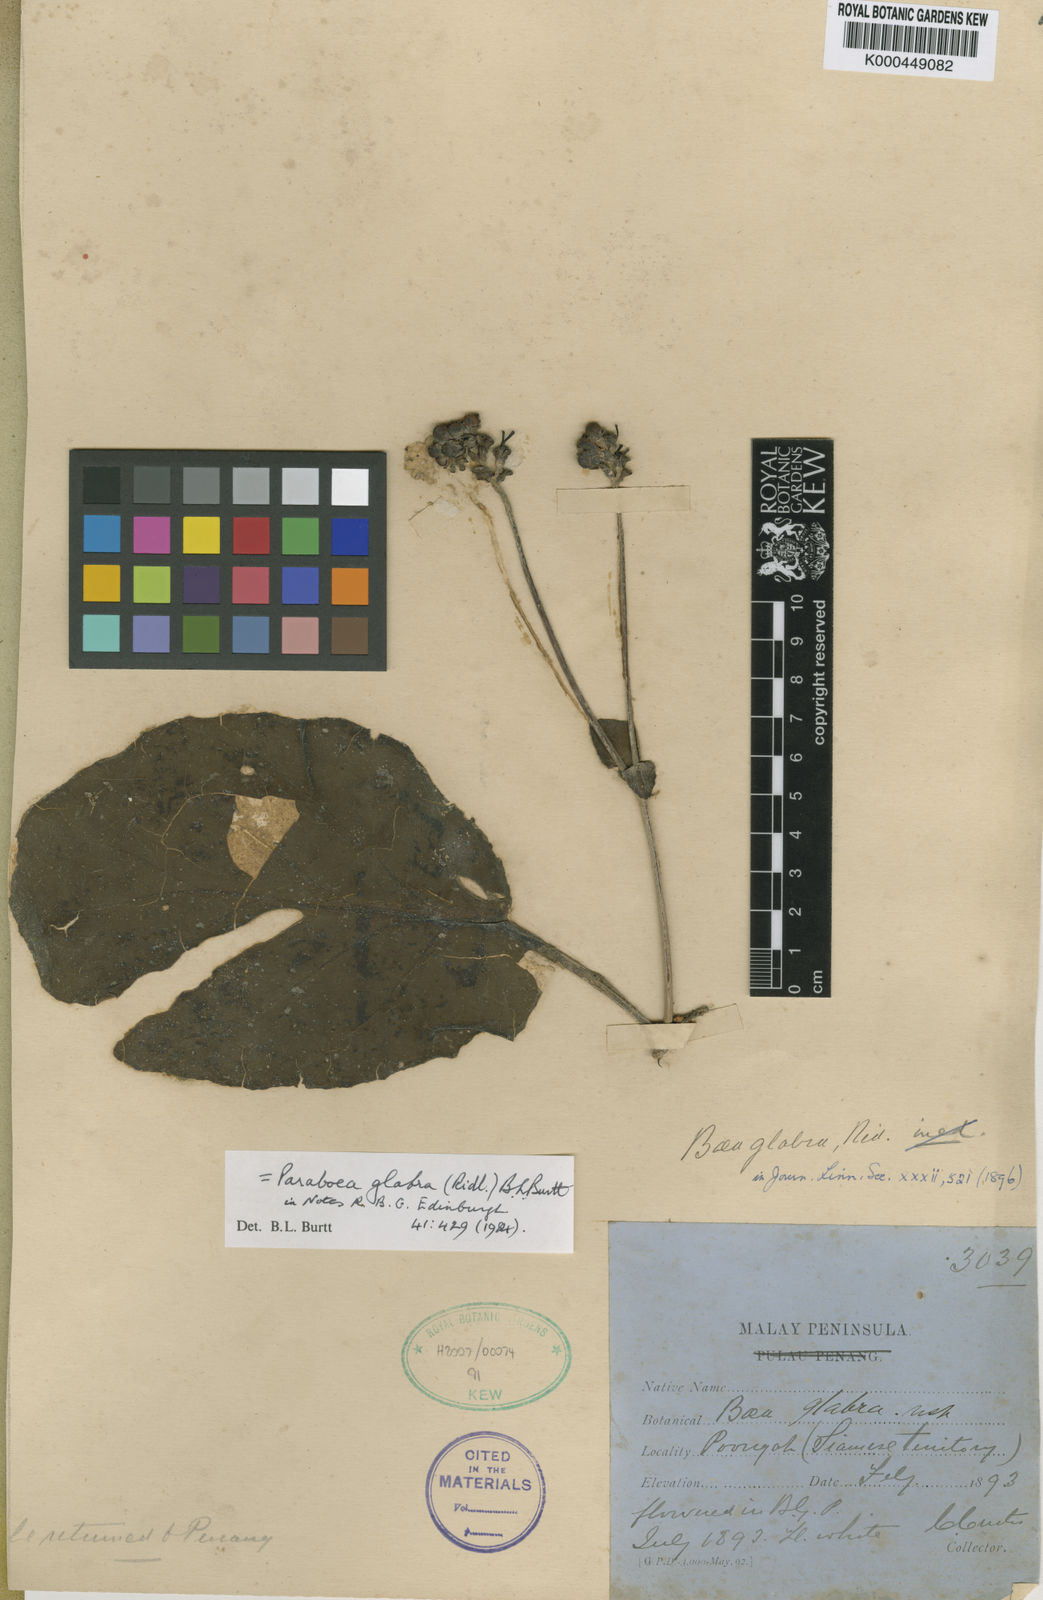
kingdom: Plantae
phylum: Tracheophyta
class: Magnoliopsida
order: Lamiales
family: Gesneriaceae
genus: Paraboea
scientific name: Paraboea glabra
